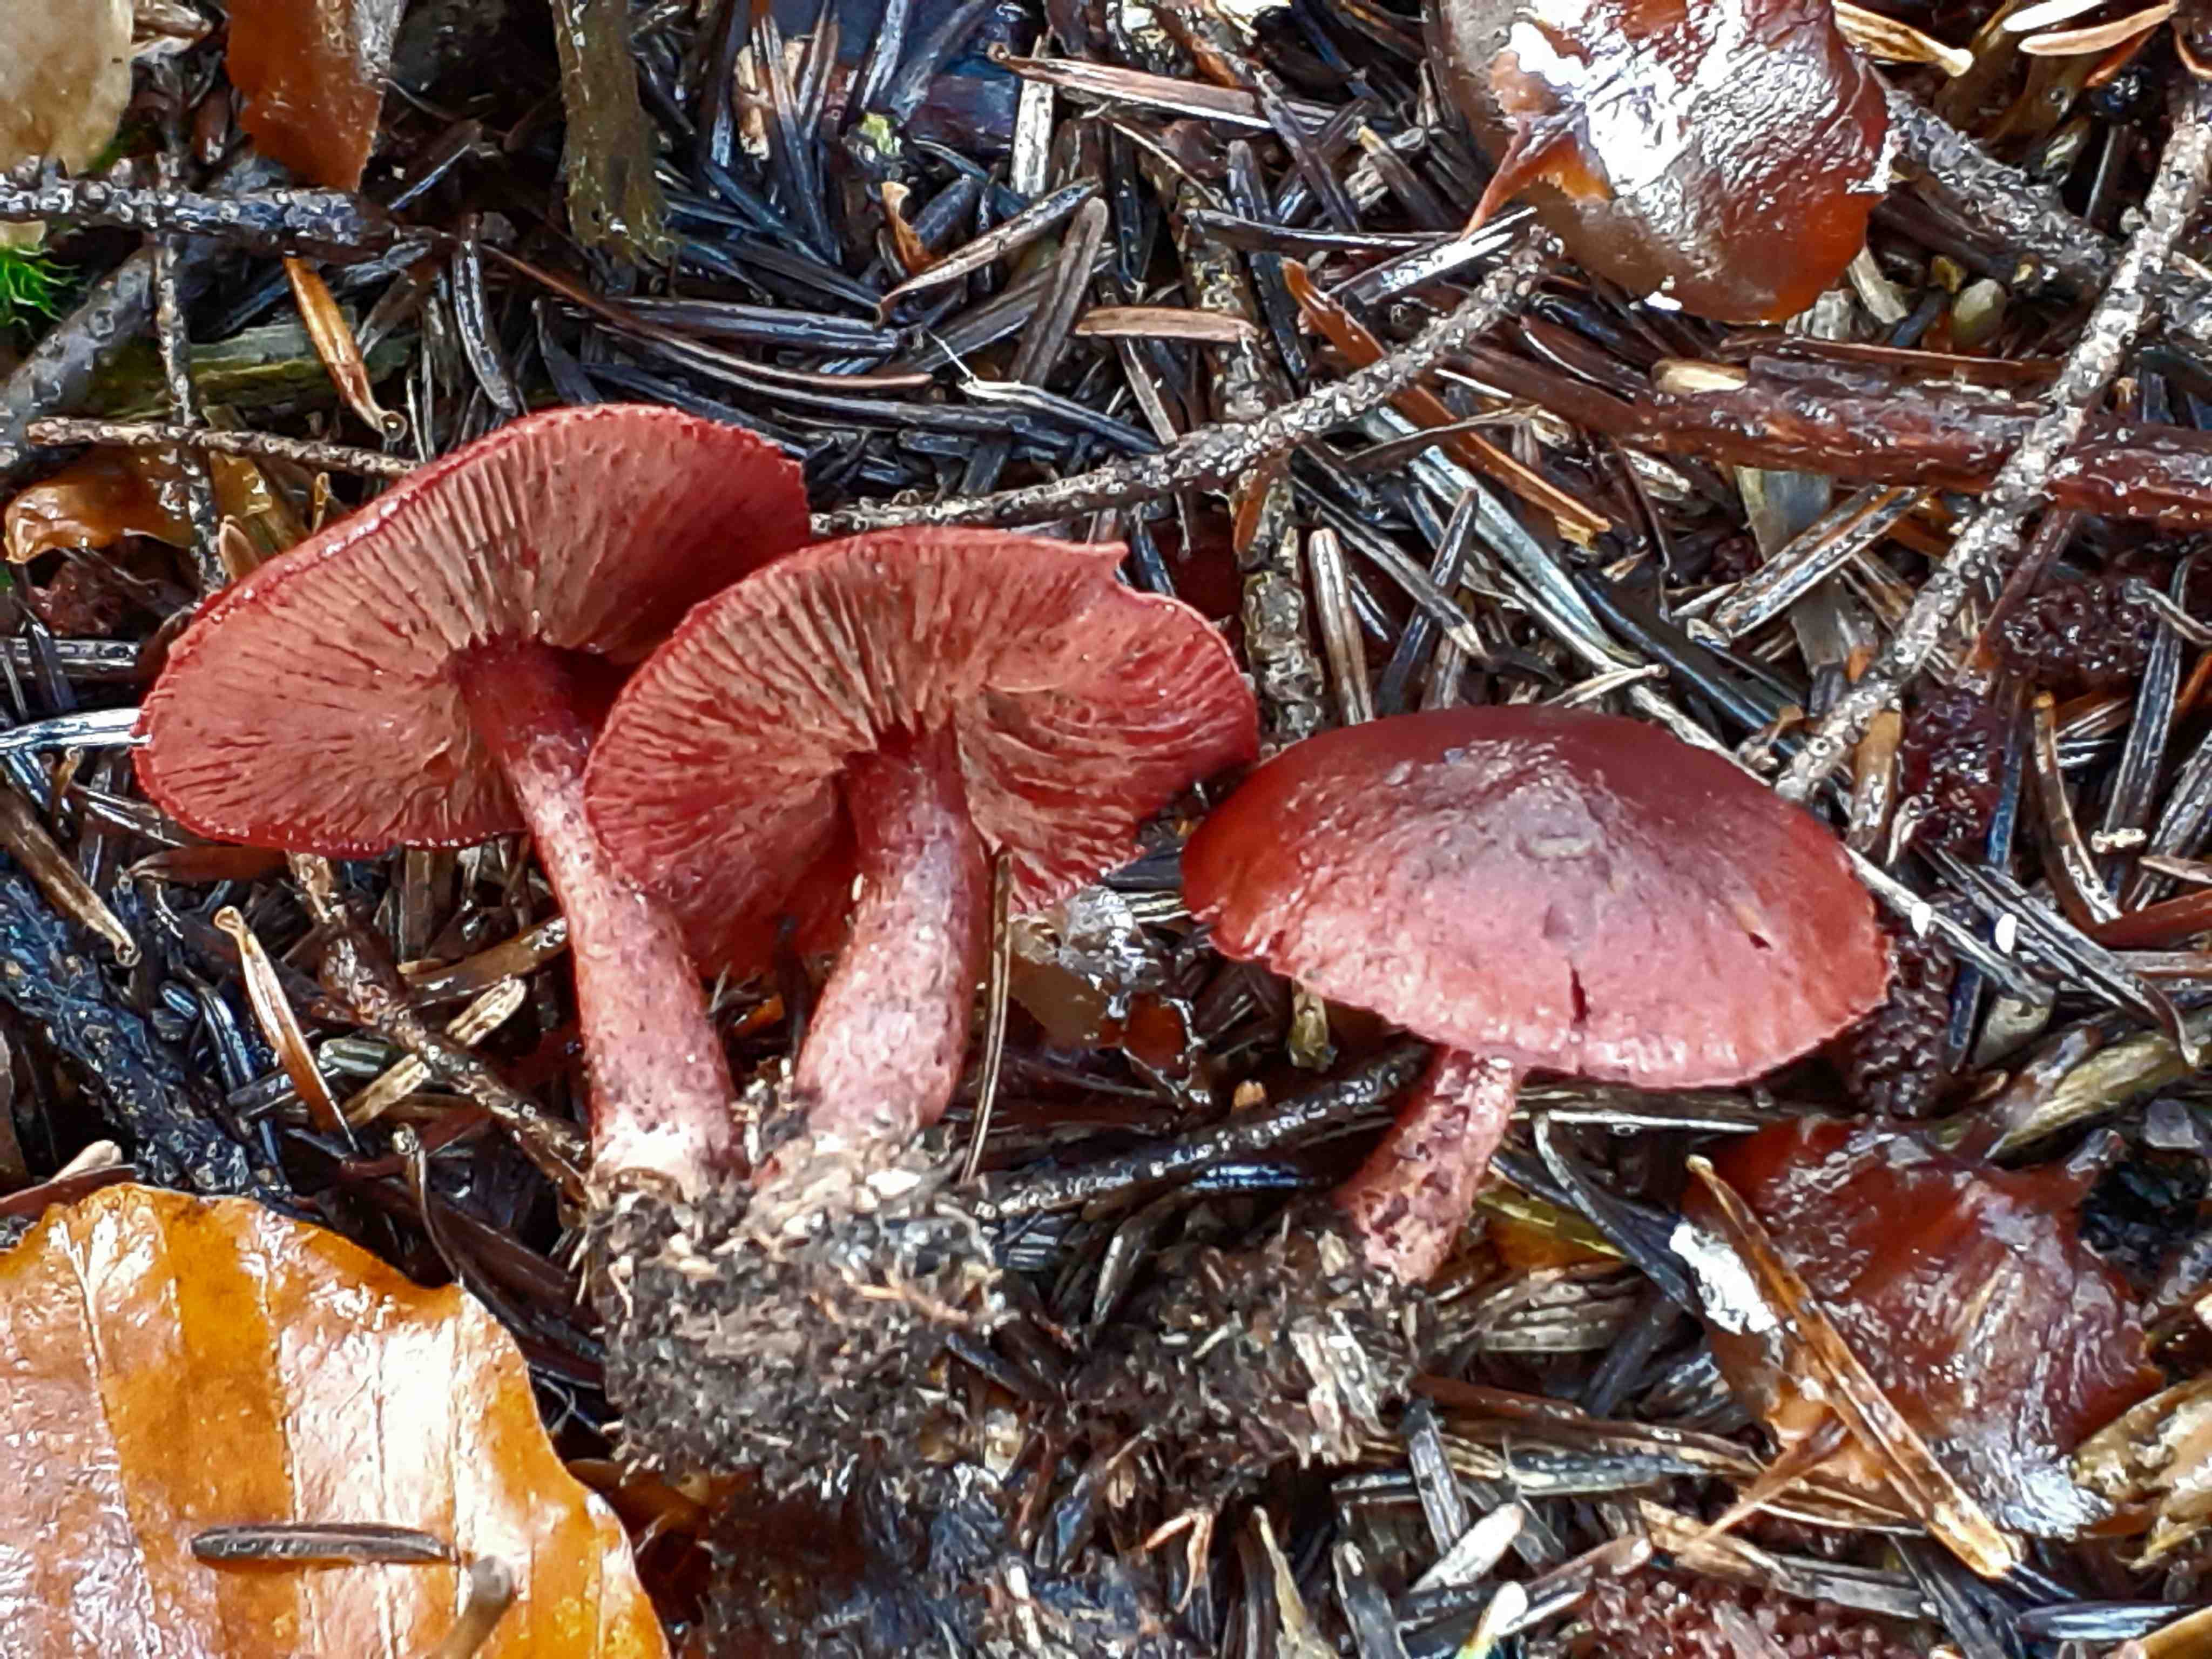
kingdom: Fungi
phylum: Basidiomycota
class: Agaricomycetes
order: Agaricales
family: Cortinariaceae
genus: Cortinarius
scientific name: Cortinarius sanguineus
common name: blodrød slørhat
